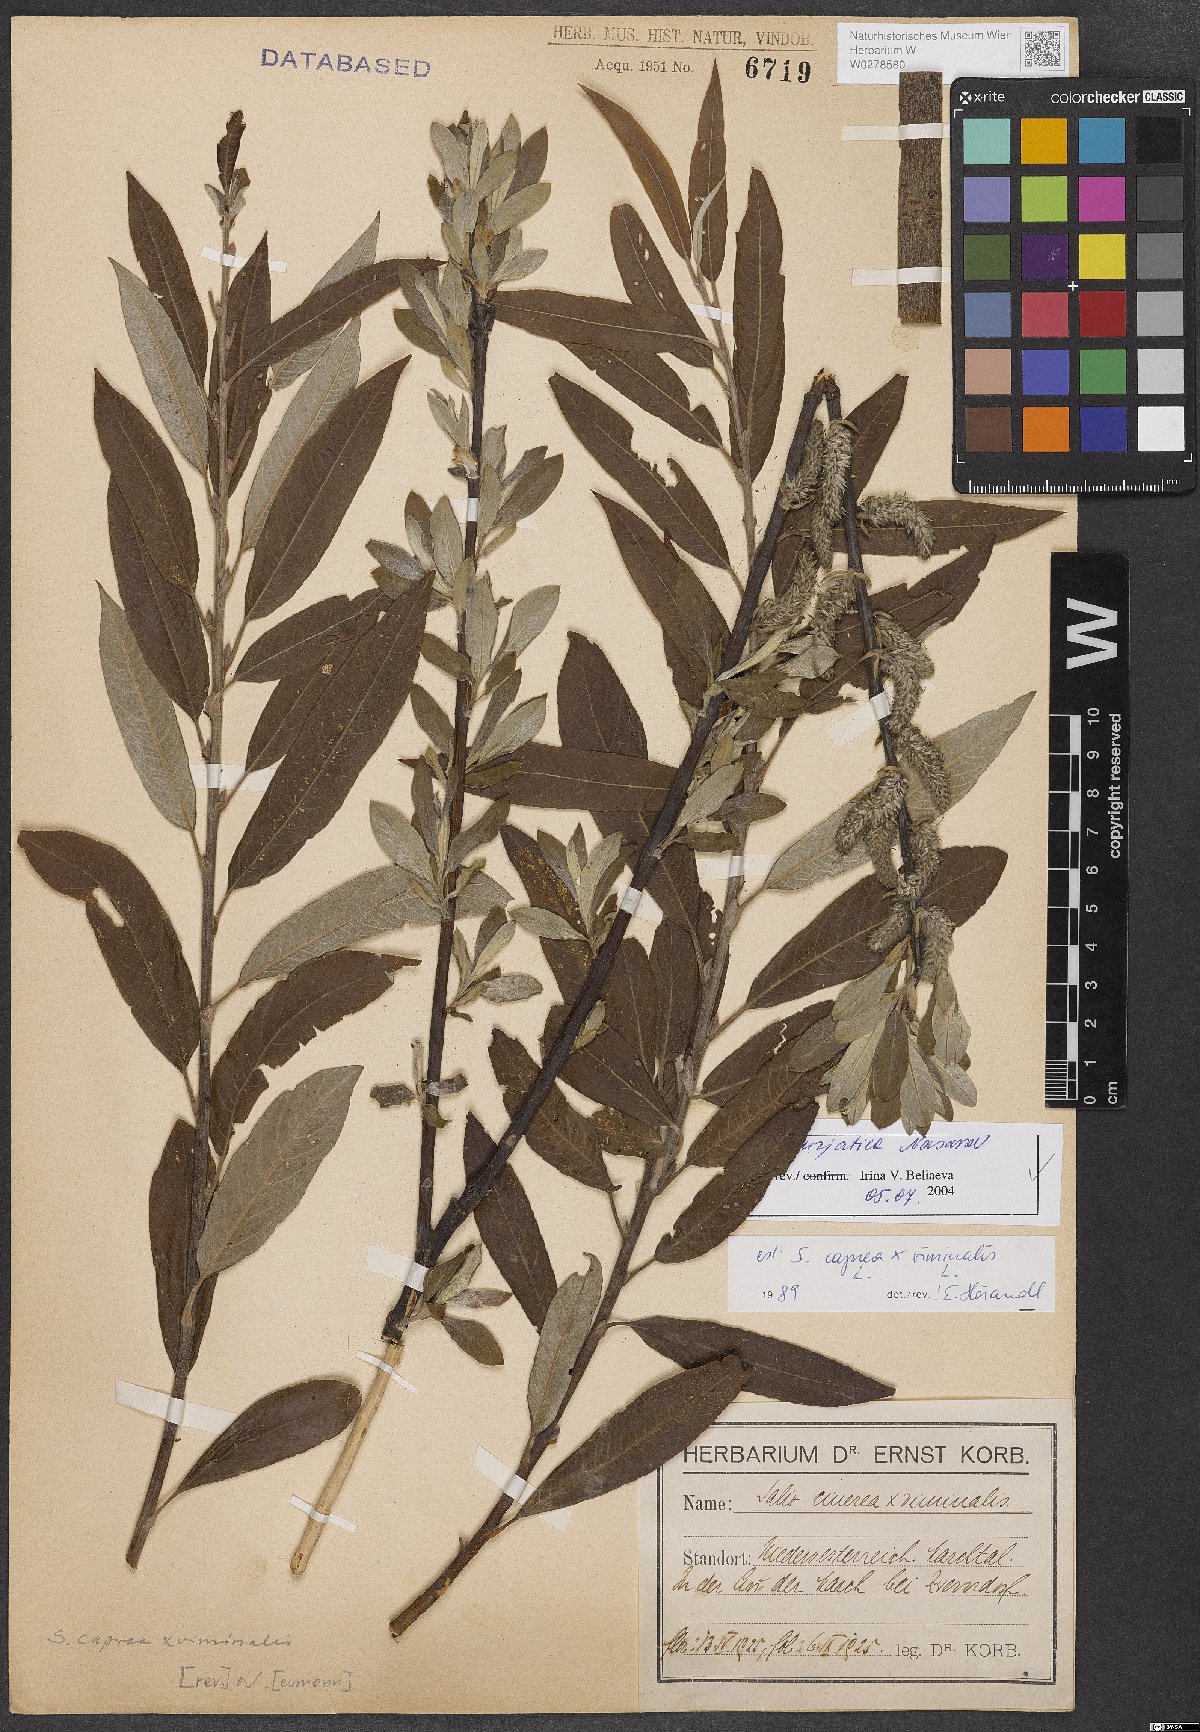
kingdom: Plantae
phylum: Tracheophyta
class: Magnoliopsida
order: Malpighiales
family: Salicaceae
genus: Salix
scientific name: Salix gmelinii
